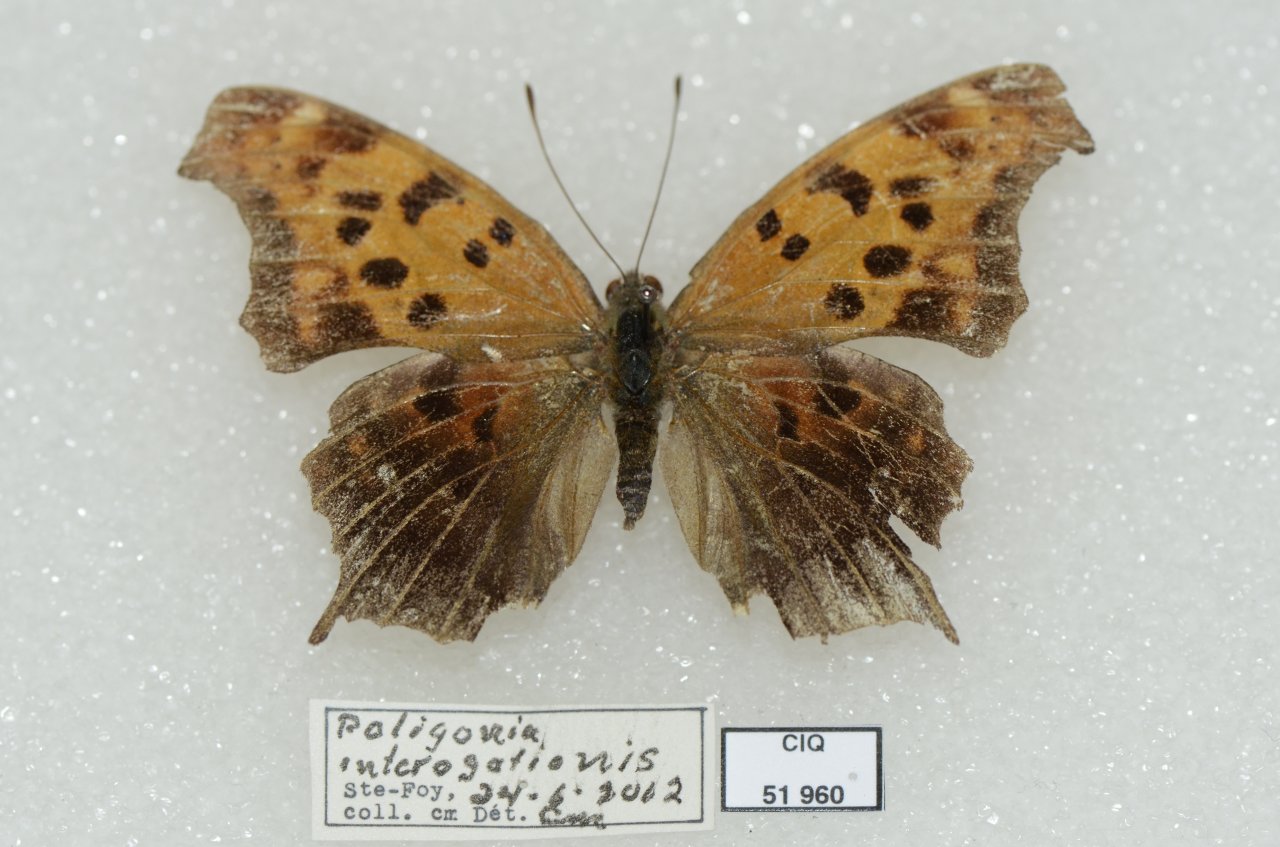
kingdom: Animalia
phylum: Arthropoda
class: Insecta
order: Lepidoptera
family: Nymphalidae
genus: Polygonia
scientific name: Polygonia interrogationis
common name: Question Mark
